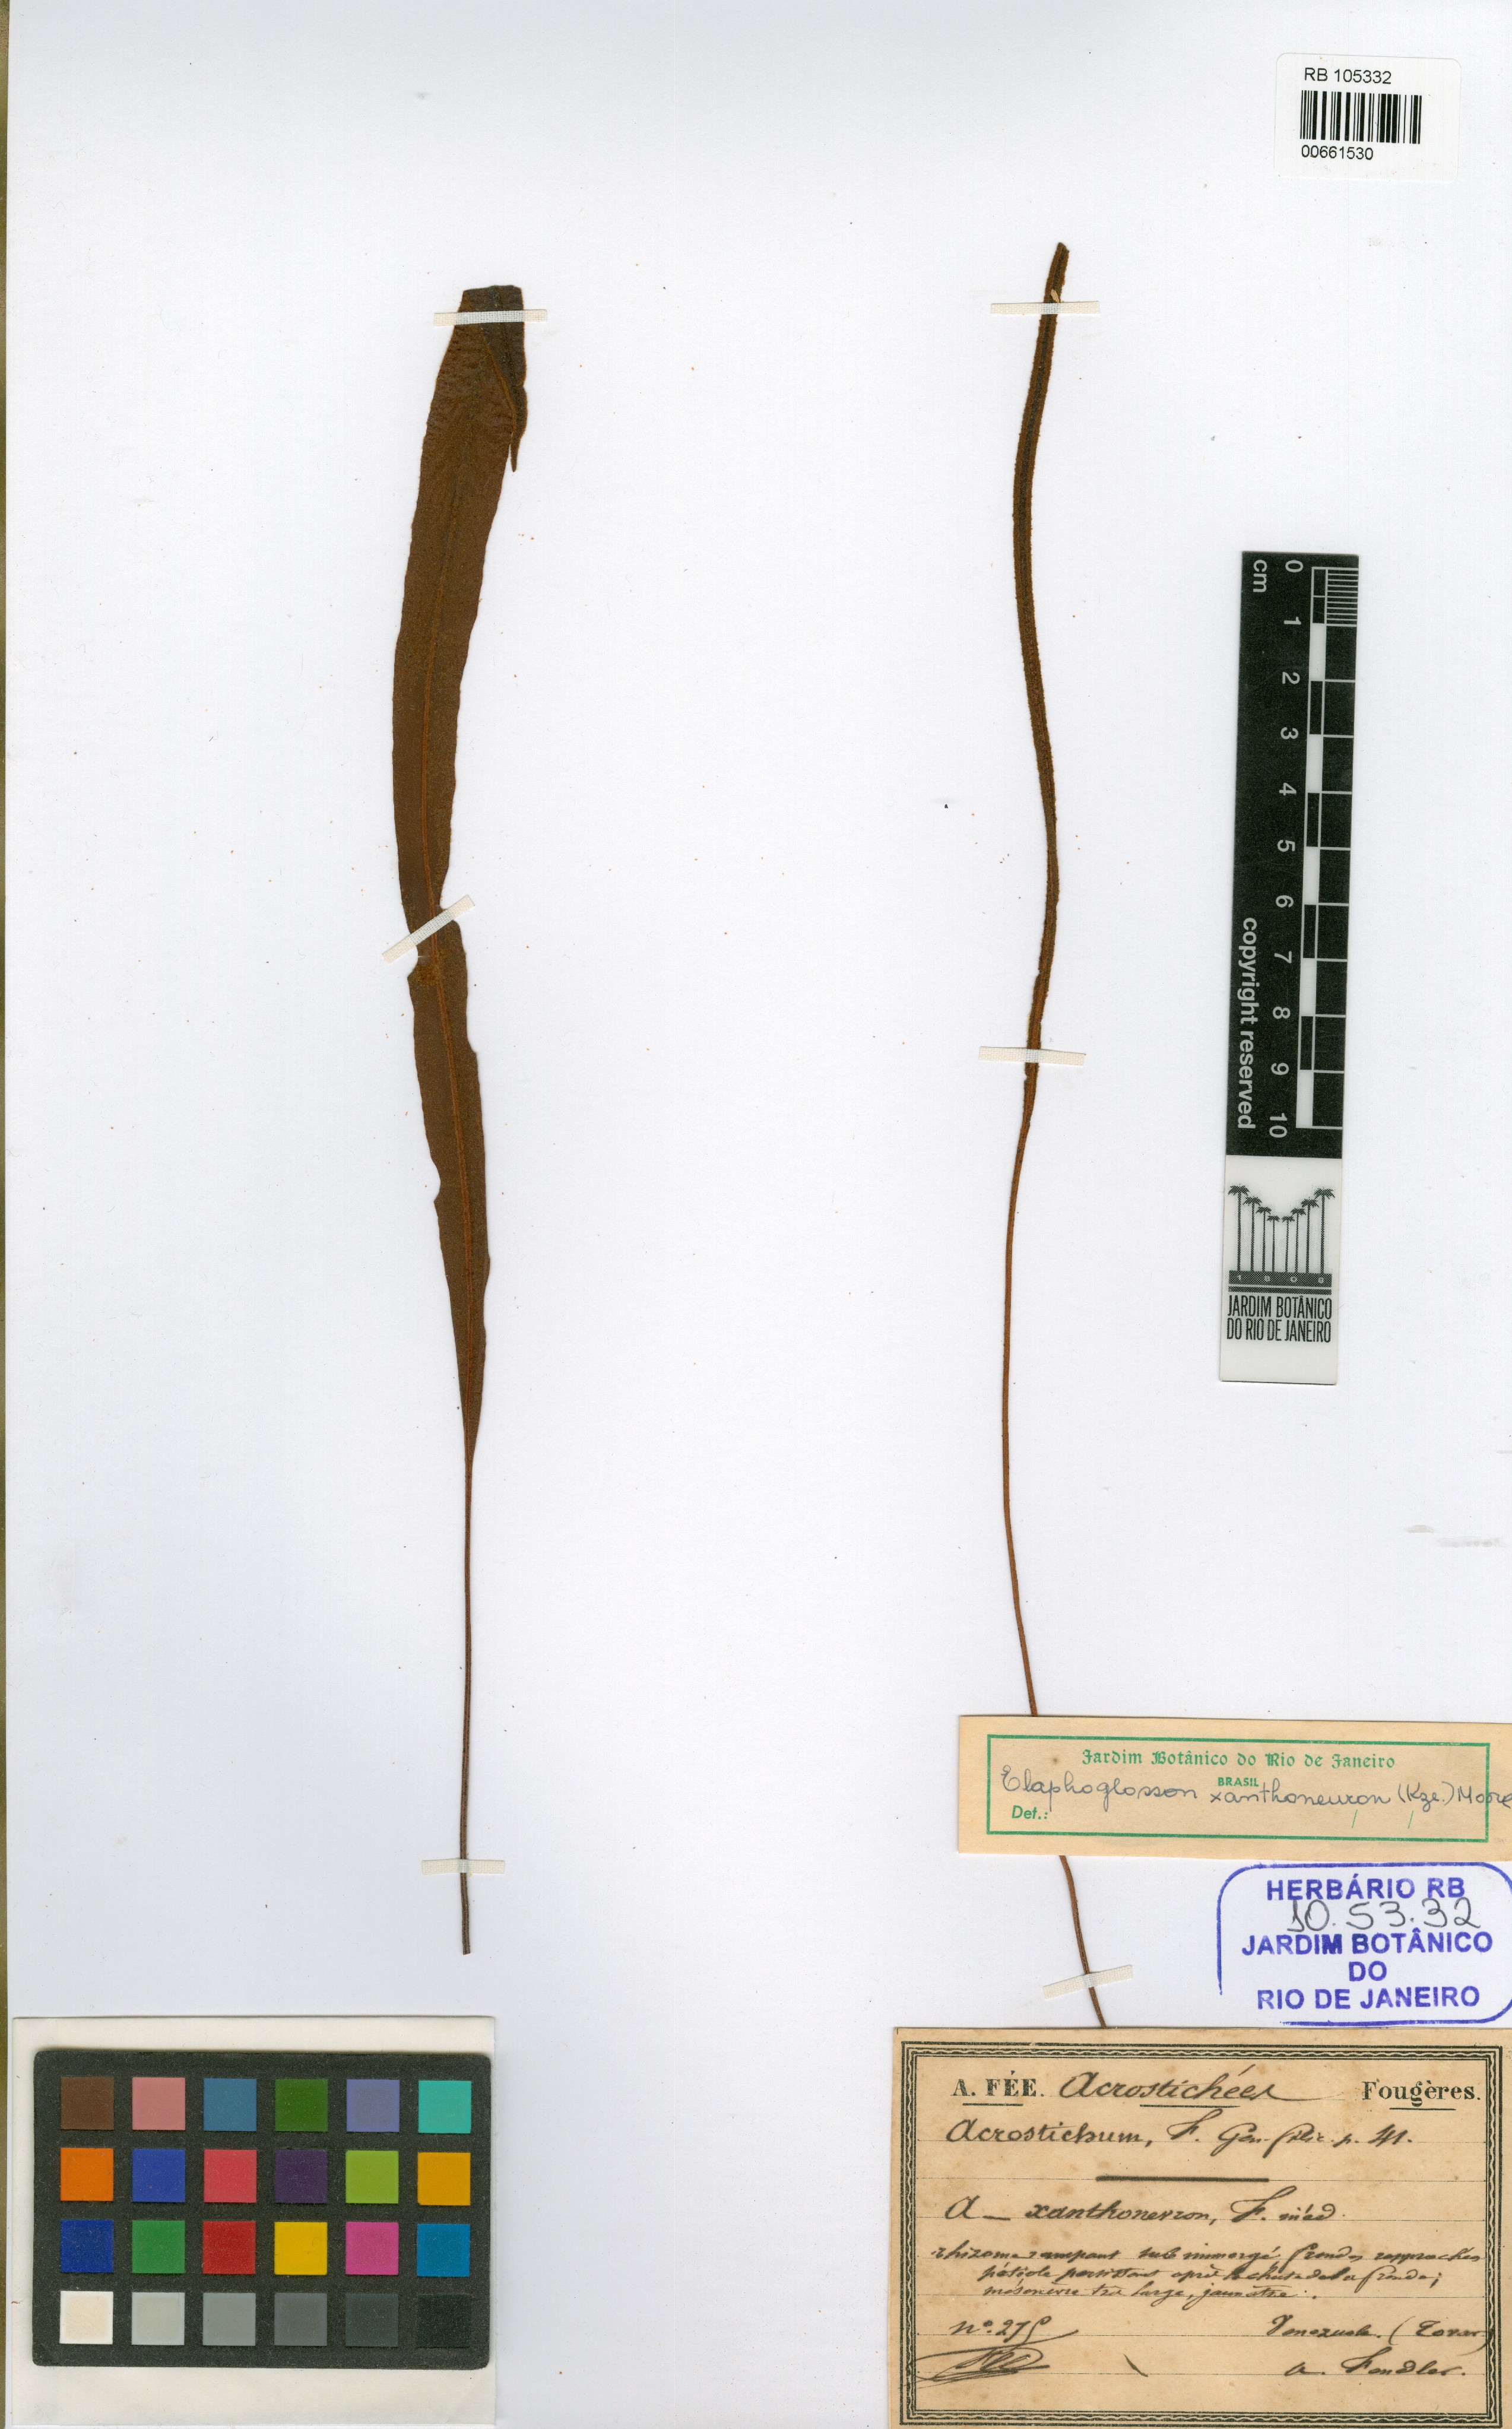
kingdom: Plantae
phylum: Tracheophyta
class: Polypodiopsida
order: Polypodiales
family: Dryopteridaceae
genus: Elaphoglossum
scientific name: Elaphoglossum xanthoneuron
